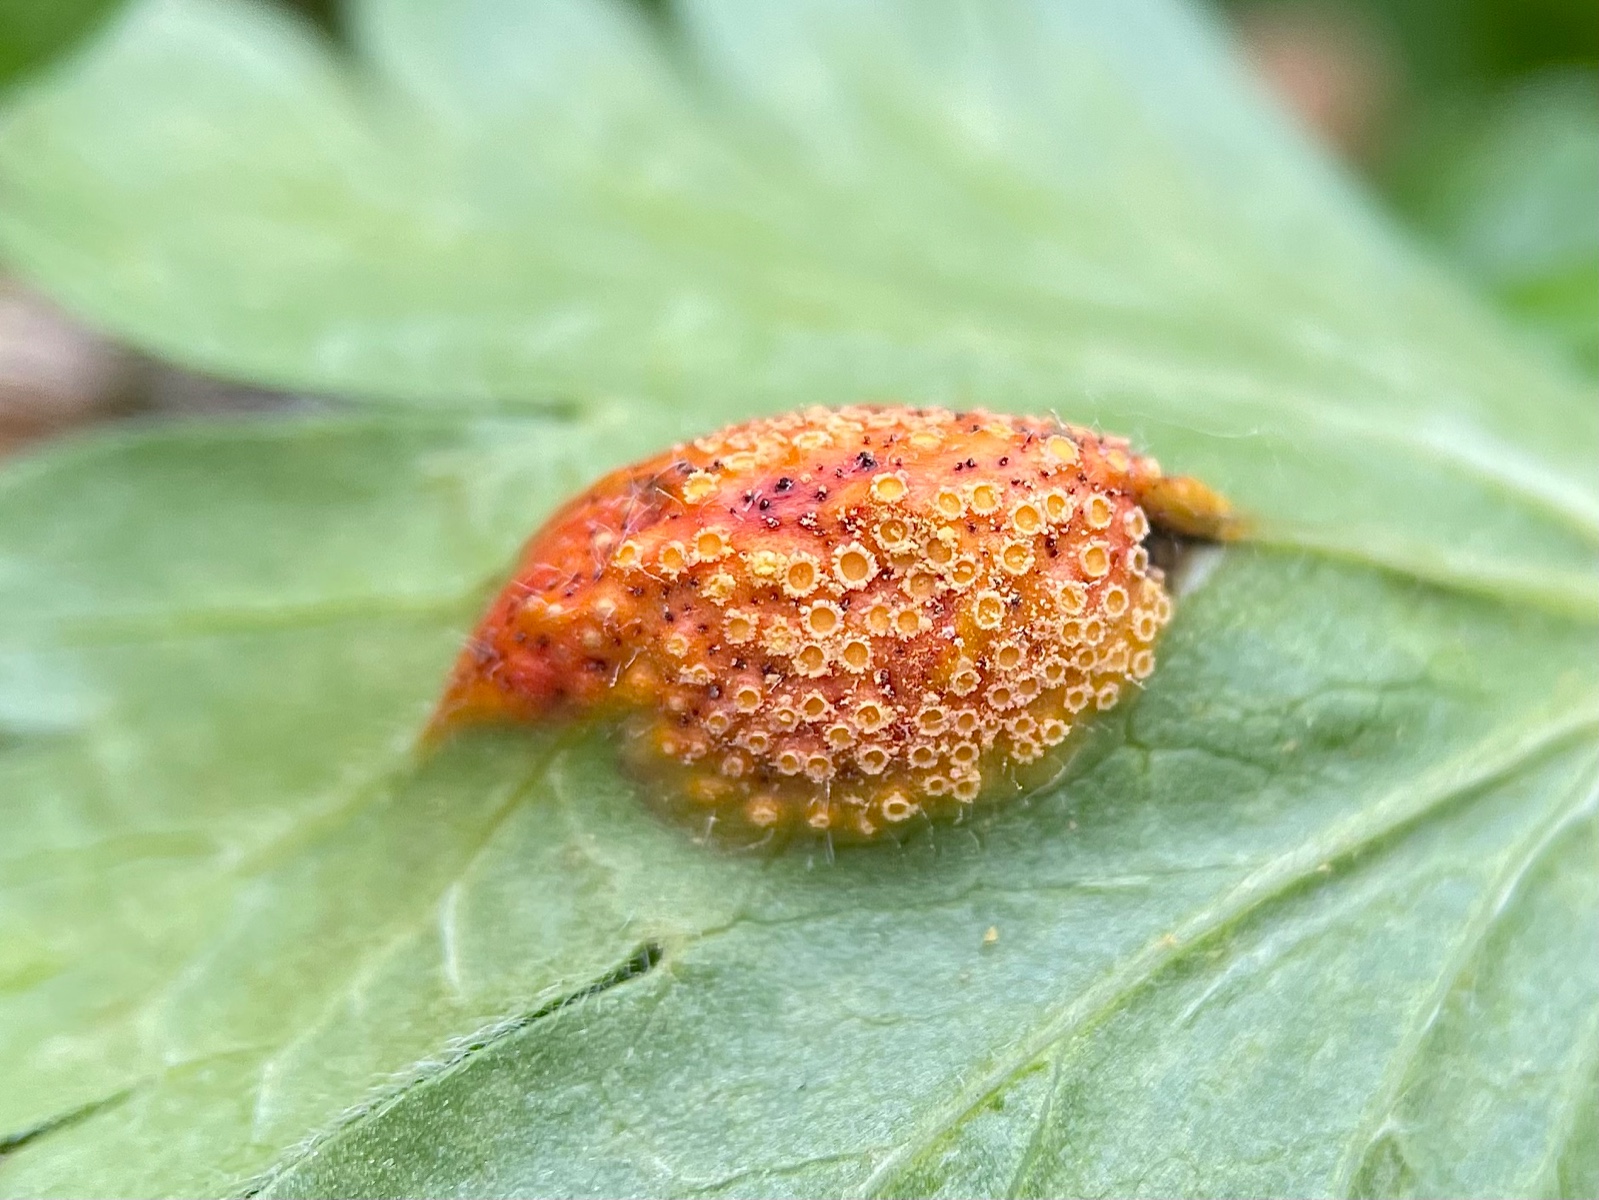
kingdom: Fungi
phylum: Basidiomycota
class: Pucciniomycetes
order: Pucciniales
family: Pucciniaceae
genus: Puccinia
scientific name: Puccinia caricina
